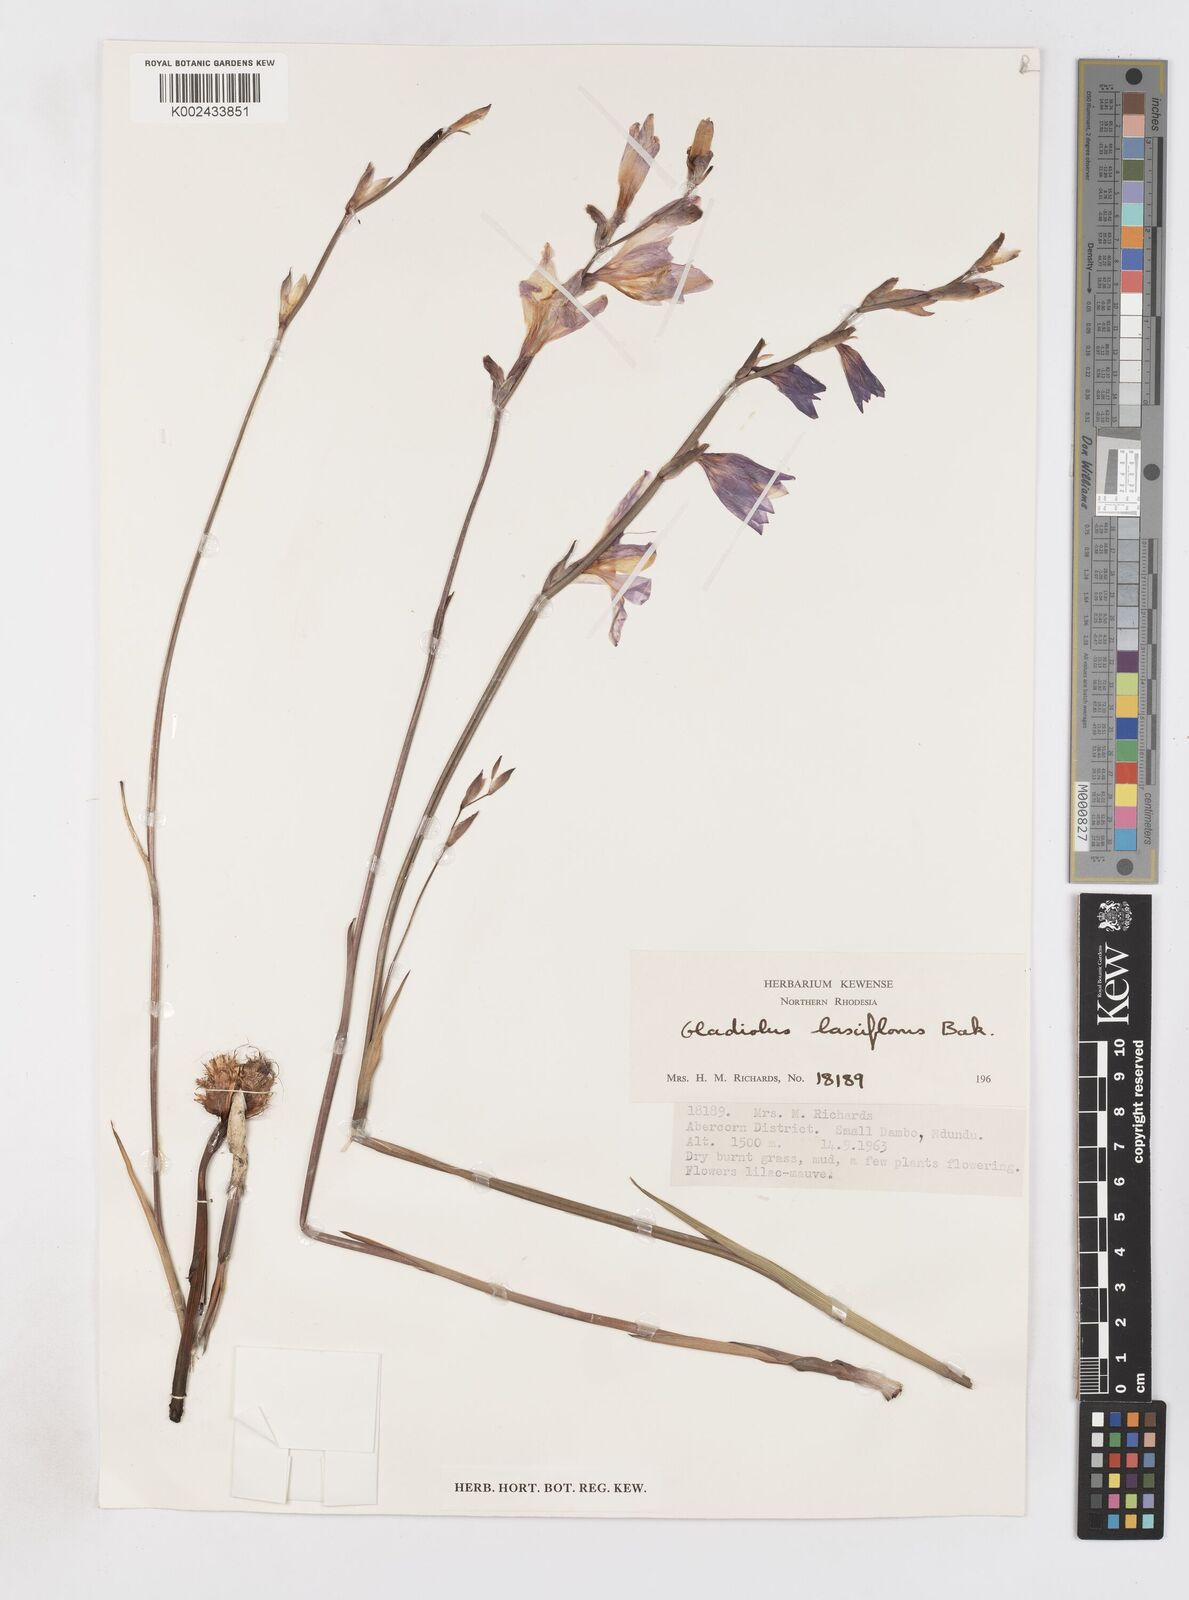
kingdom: Plantae
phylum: Tracheophyta
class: Liliopsida
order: Asparagales
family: Iridaceae
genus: Gladiolus
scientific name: Gladiolus laxiflorus
